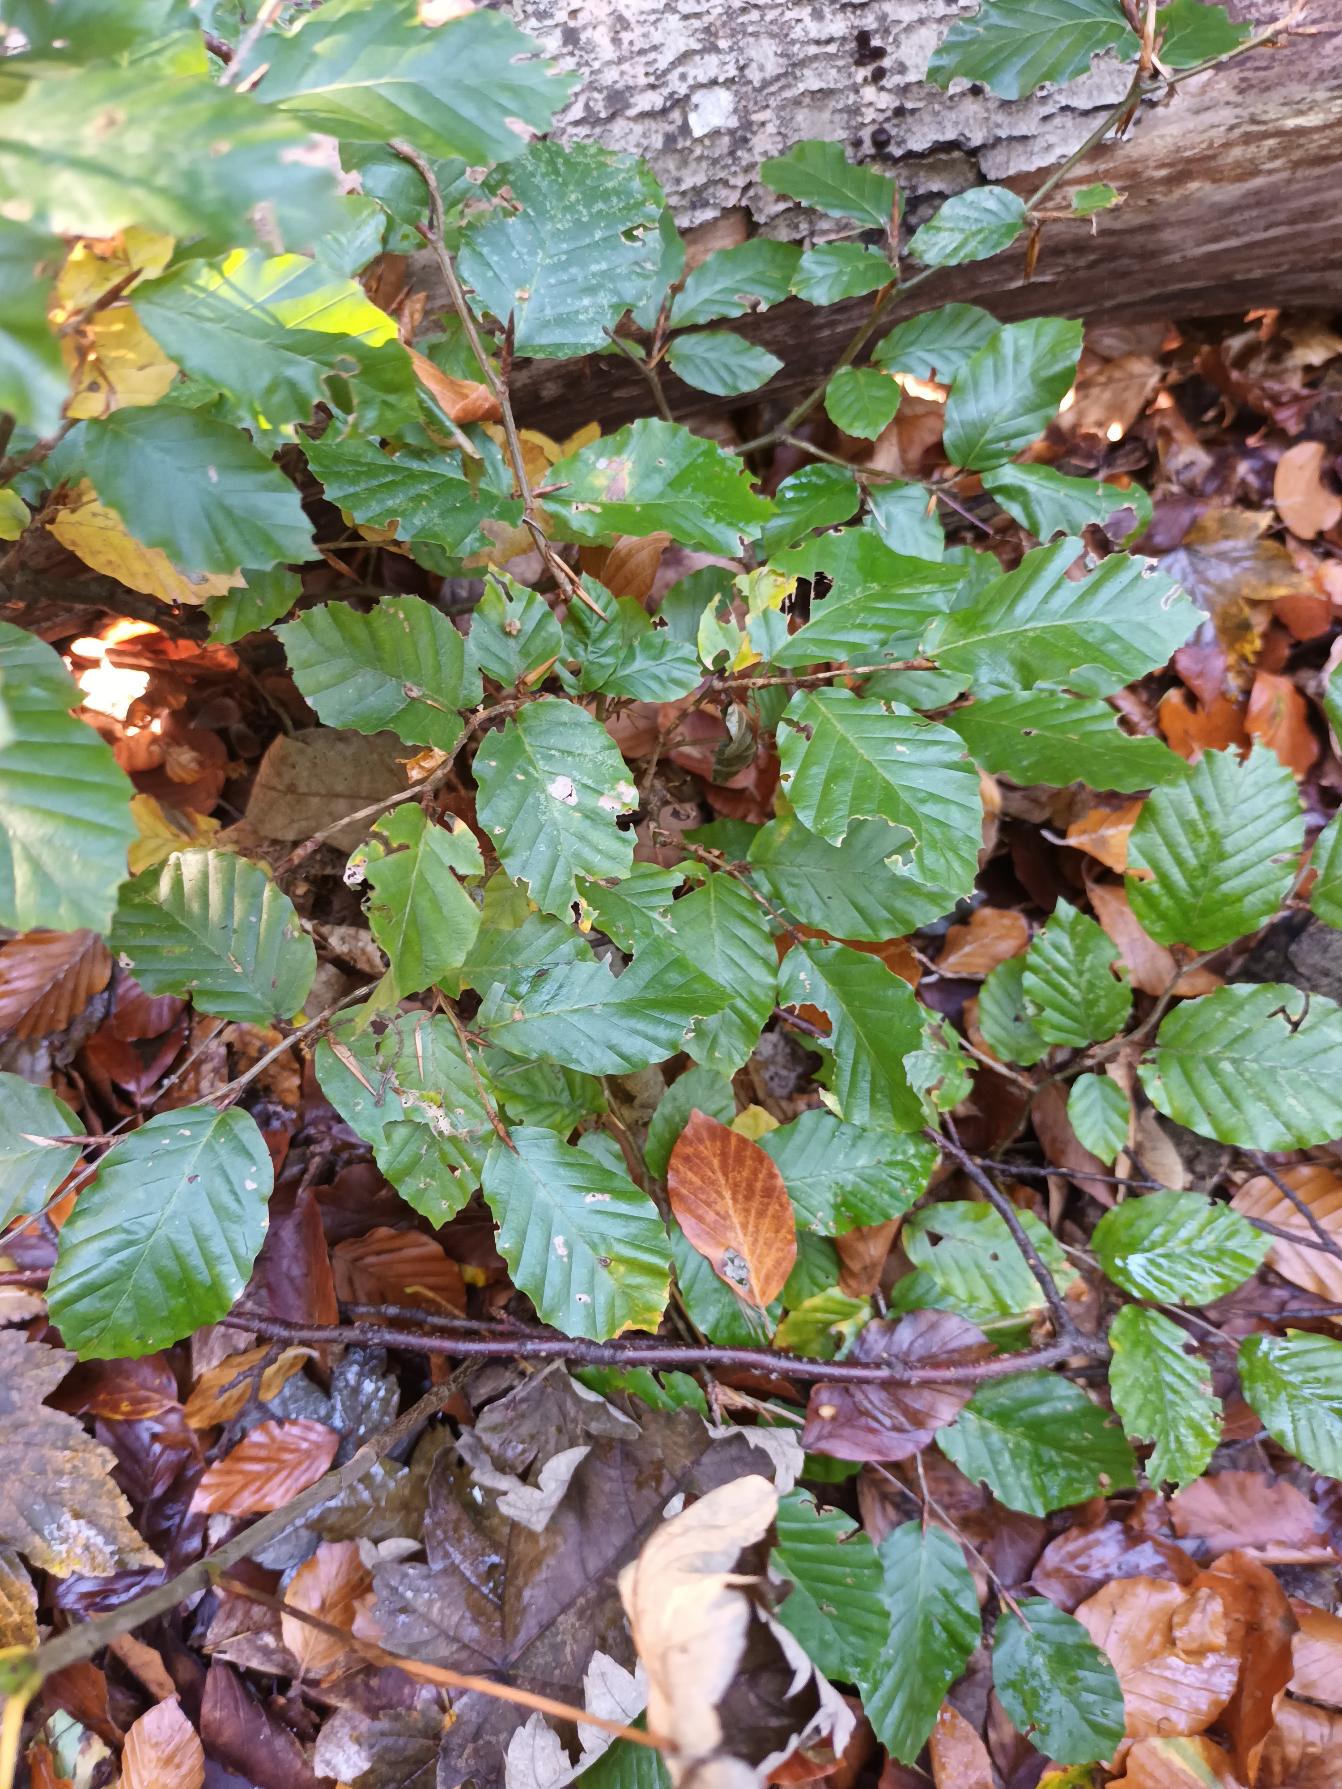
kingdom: Plantae
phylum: Tracheophyta
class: Magnoliopsida
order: Fagales
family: Fagaceae
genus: Fagus
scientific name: Fagus sylvatica
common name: Bøg
